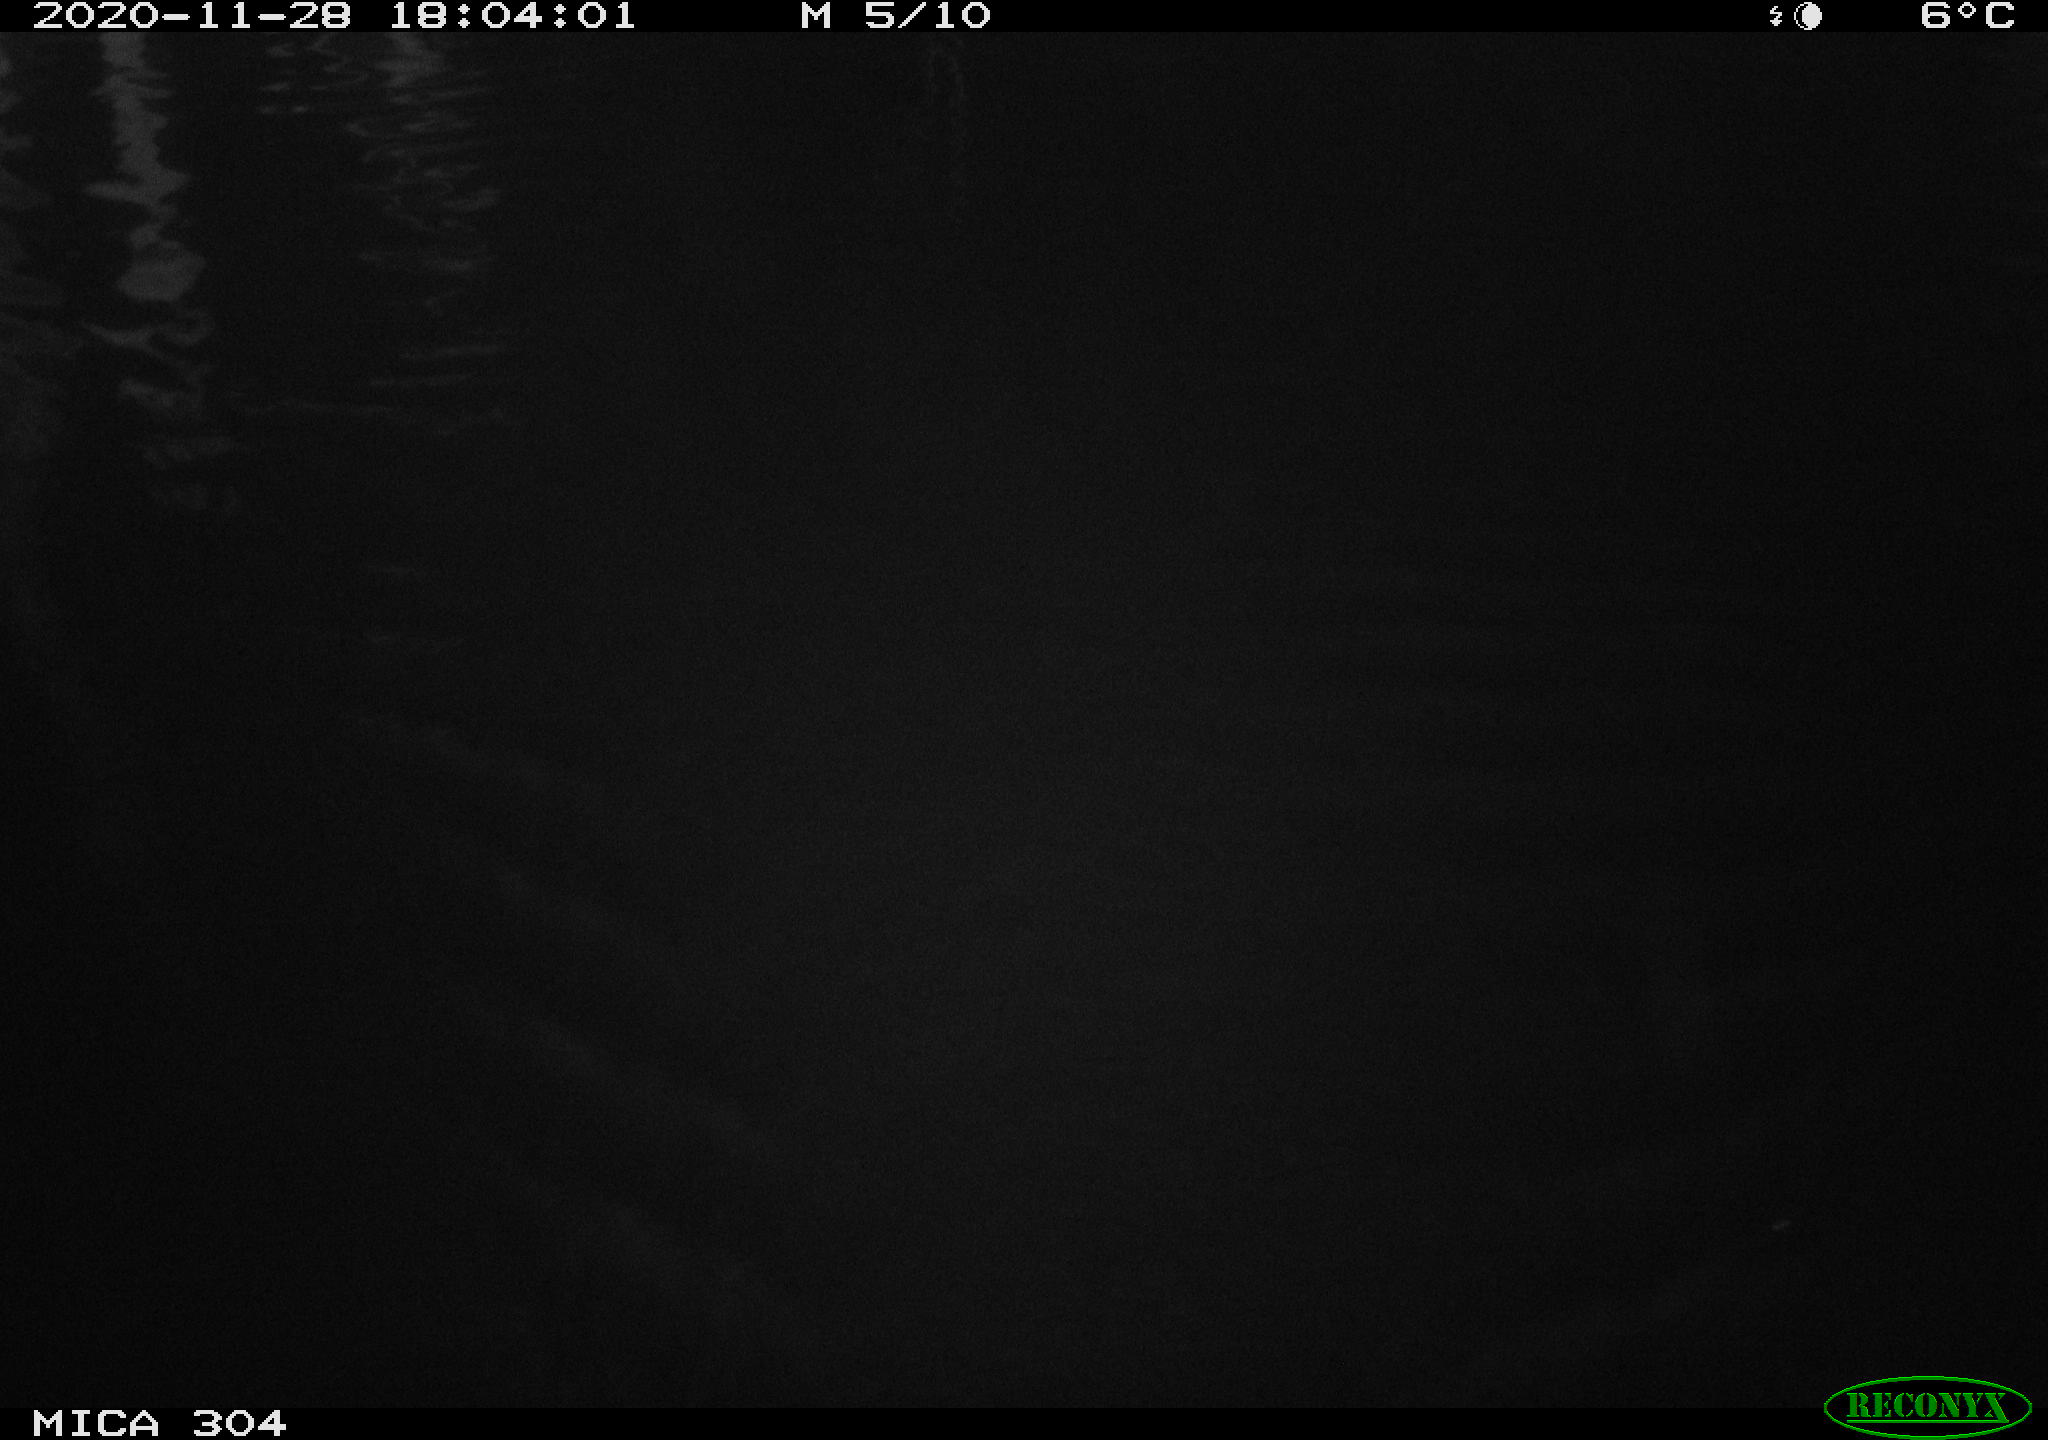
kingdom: Animalia
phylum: Chordata
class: Mammalia
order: Rodentia
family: Cricetidae
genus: Ondatra
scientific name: Ondatra zibethicus
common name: Muskrat
